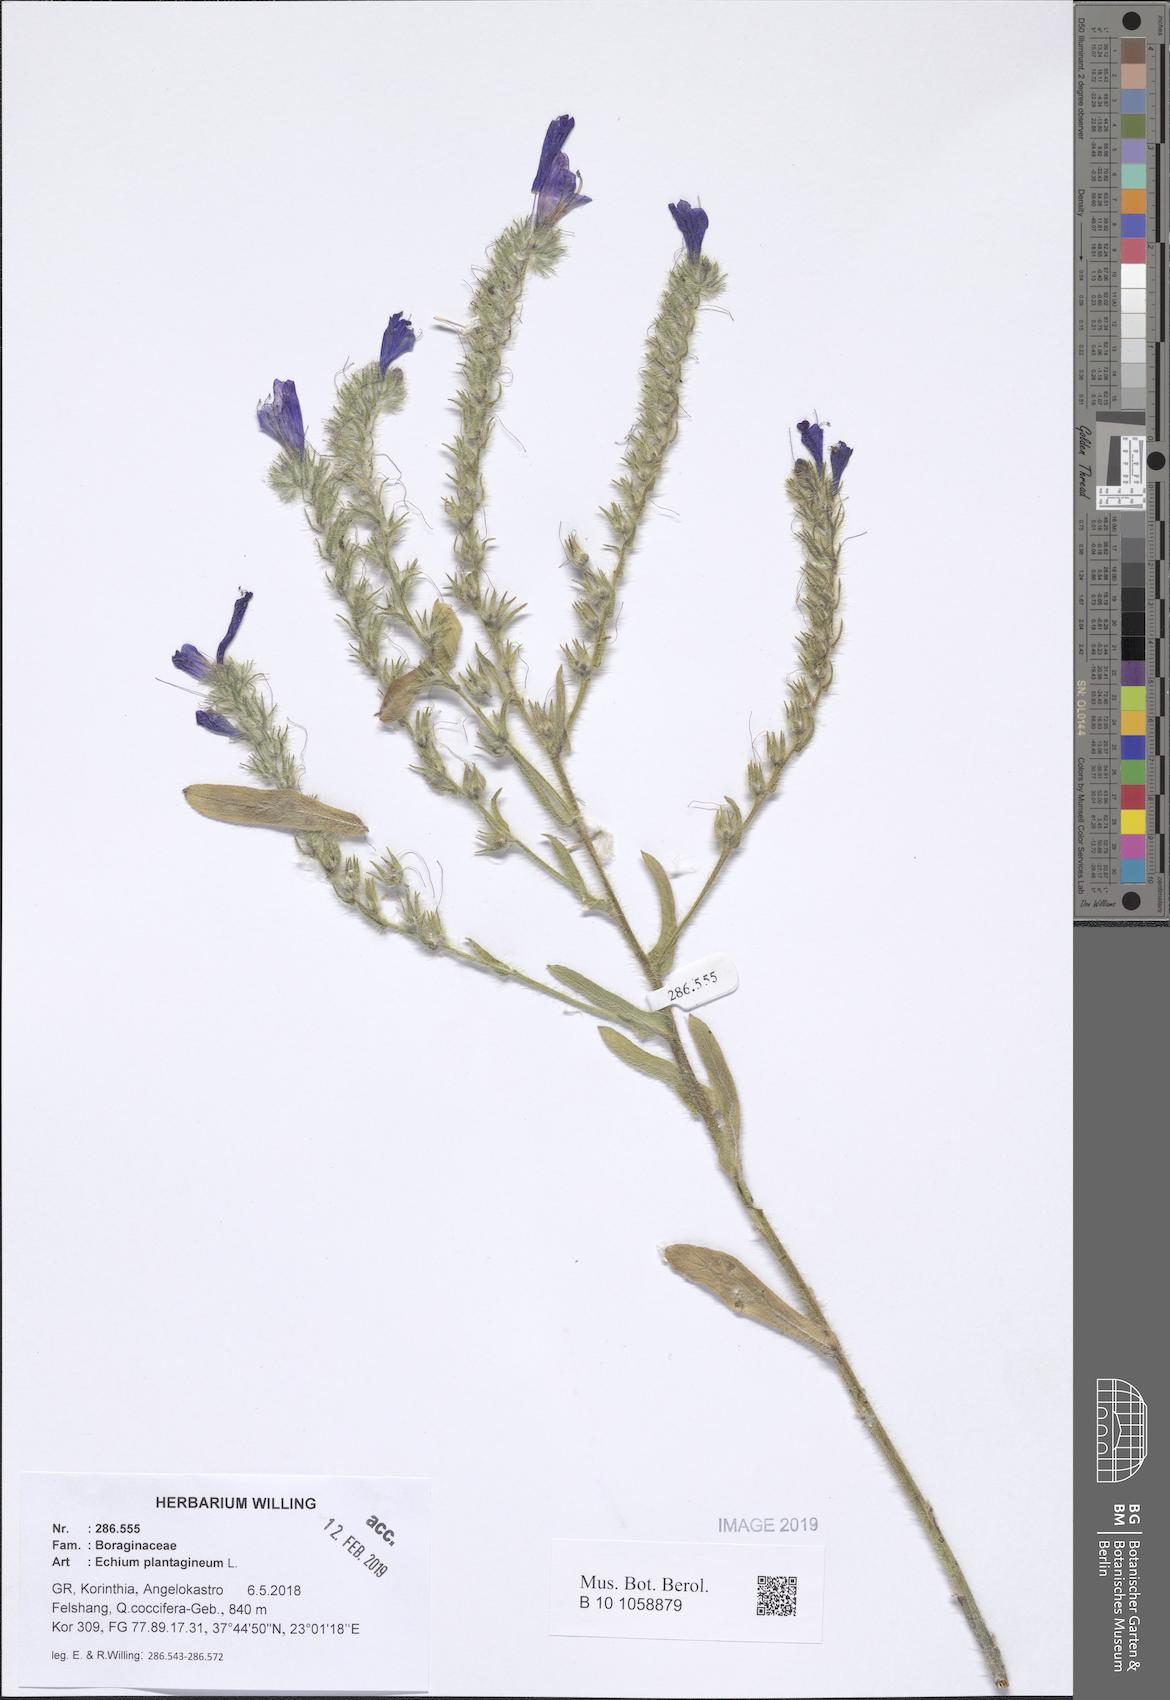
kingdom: Plantae
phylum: Tracheophyta
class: Magnoliopsida
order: Boraginales
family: Boraginaceae
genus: Echium
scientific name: Echium plantagineum
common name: Purple viper's-bugloss
